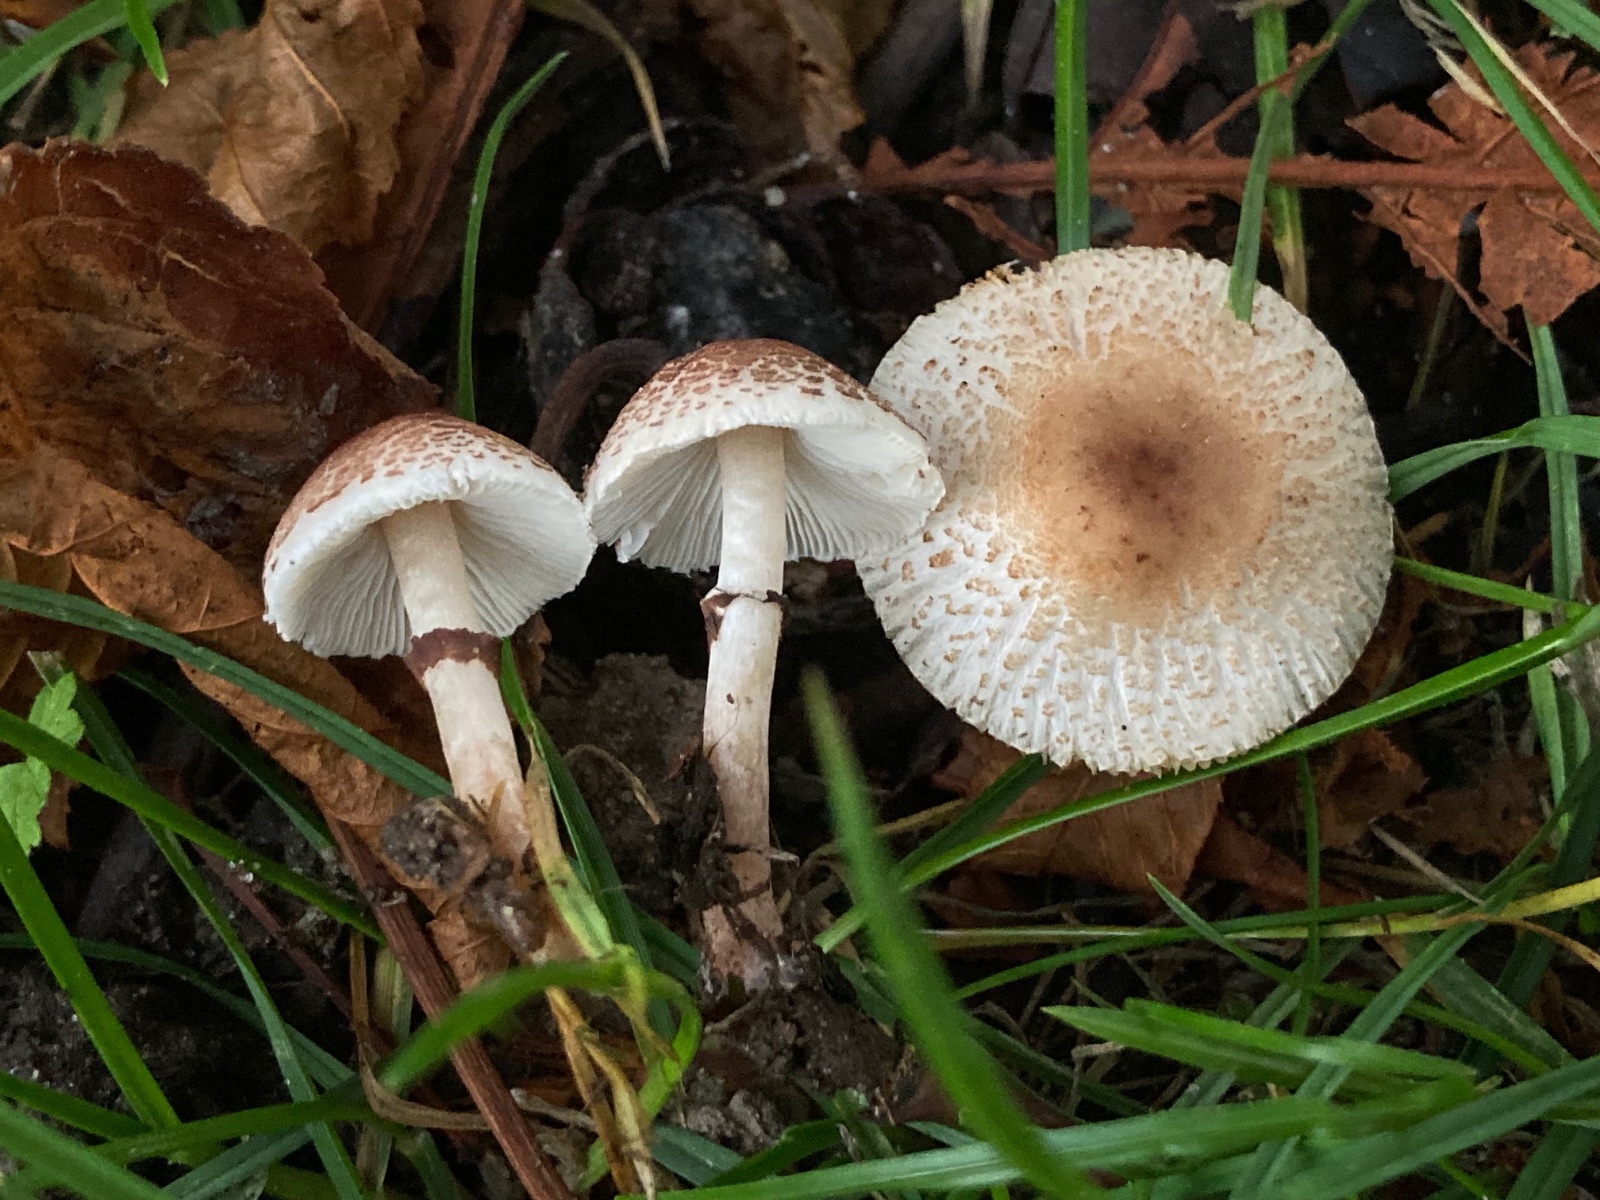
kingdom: Fungi
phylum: Basidiomycota
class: Agaricomycetes
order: Agaricales
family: Agaricaceae
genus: Lepiota
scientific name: Lepiota lilacea
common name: lillabrun parasolhat
